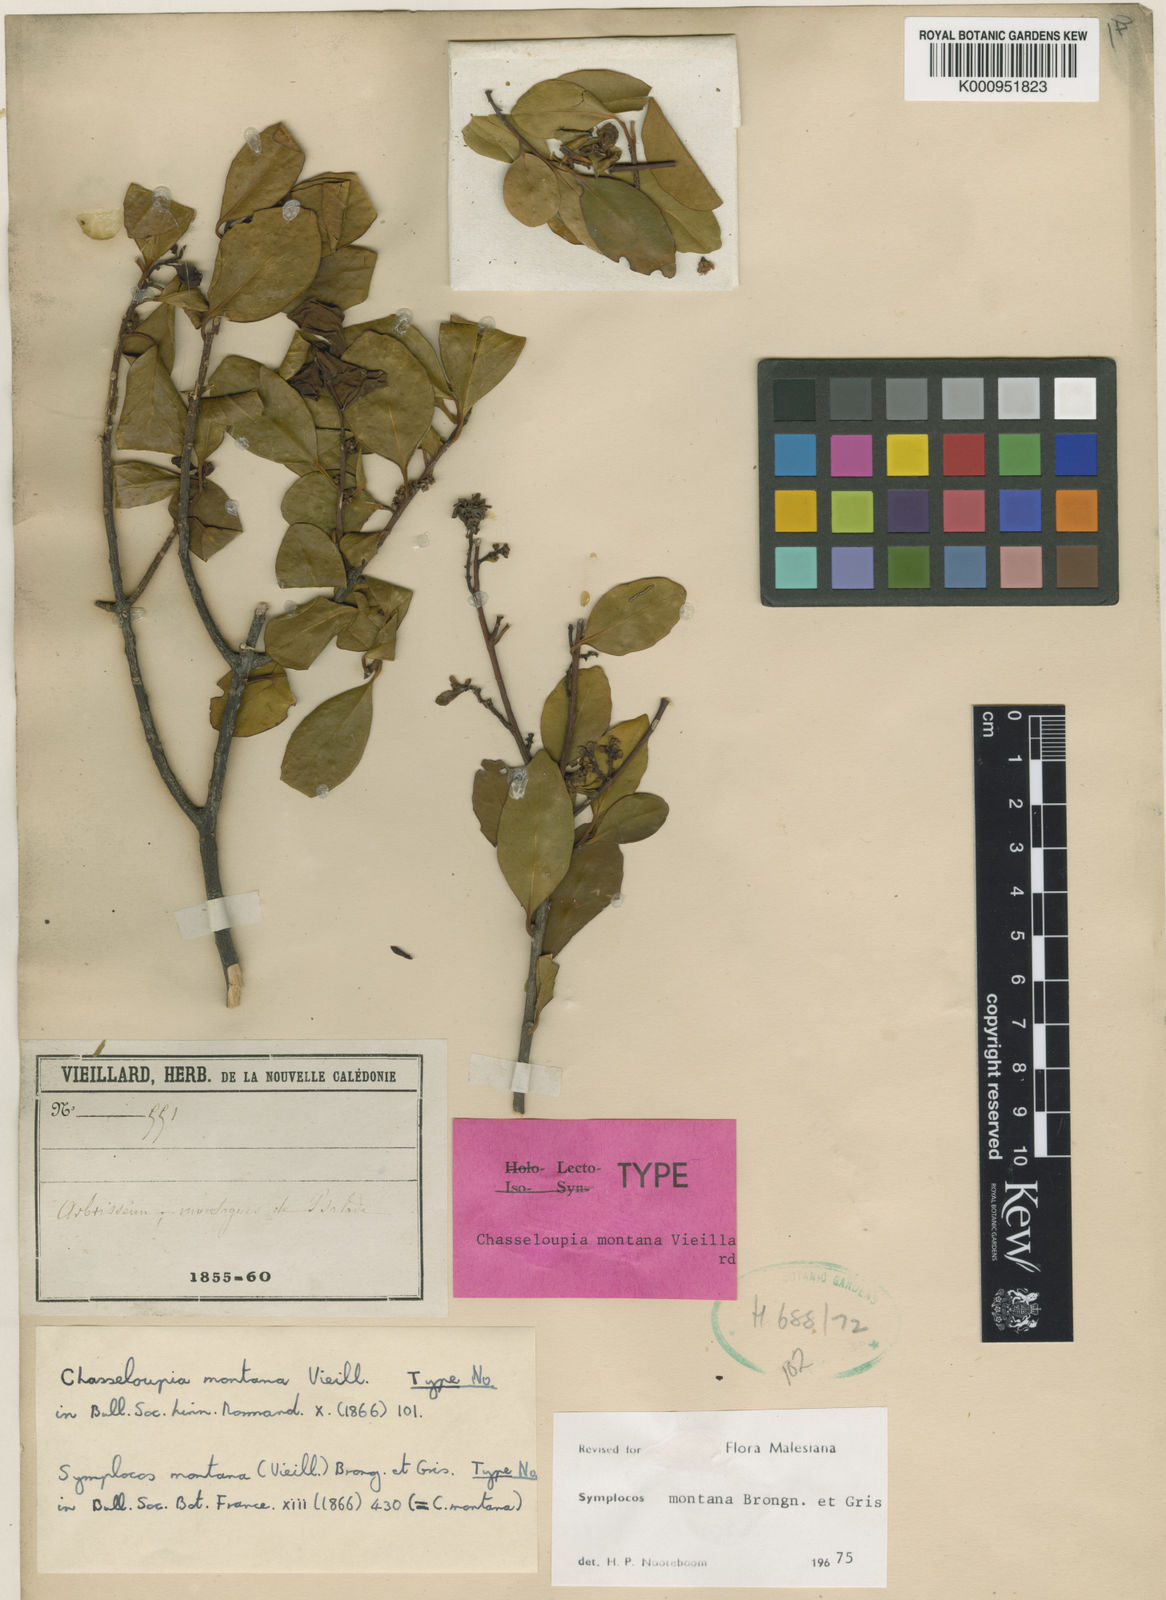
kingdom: Plantae
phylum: Tracheophyta
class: Magnoliopsida
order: Ericales
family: Symplocaceae
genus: Symplocos
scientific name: Symplocos montana
